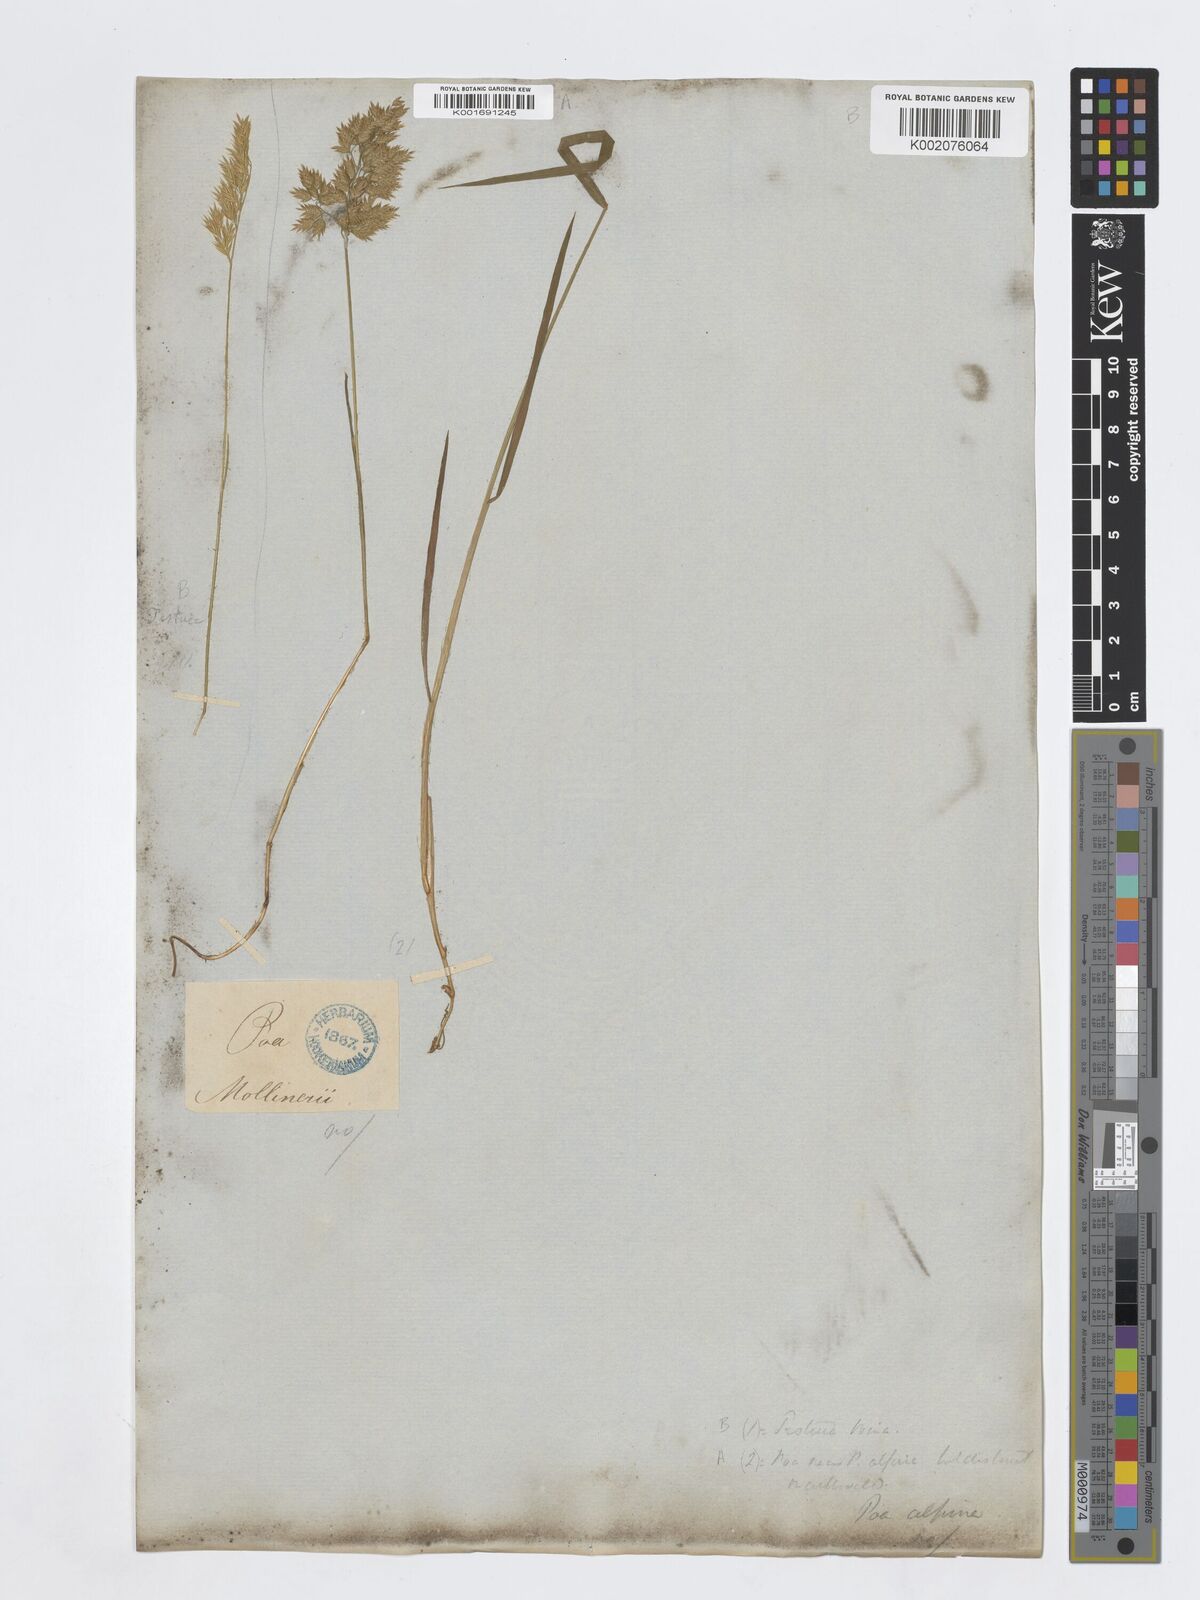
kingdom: Plantae
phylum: Tracheophyta
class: Liliopsida
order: Poales
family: Poaceae
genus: Poa
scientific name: Poa alpina
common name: Alpine bluegrass
